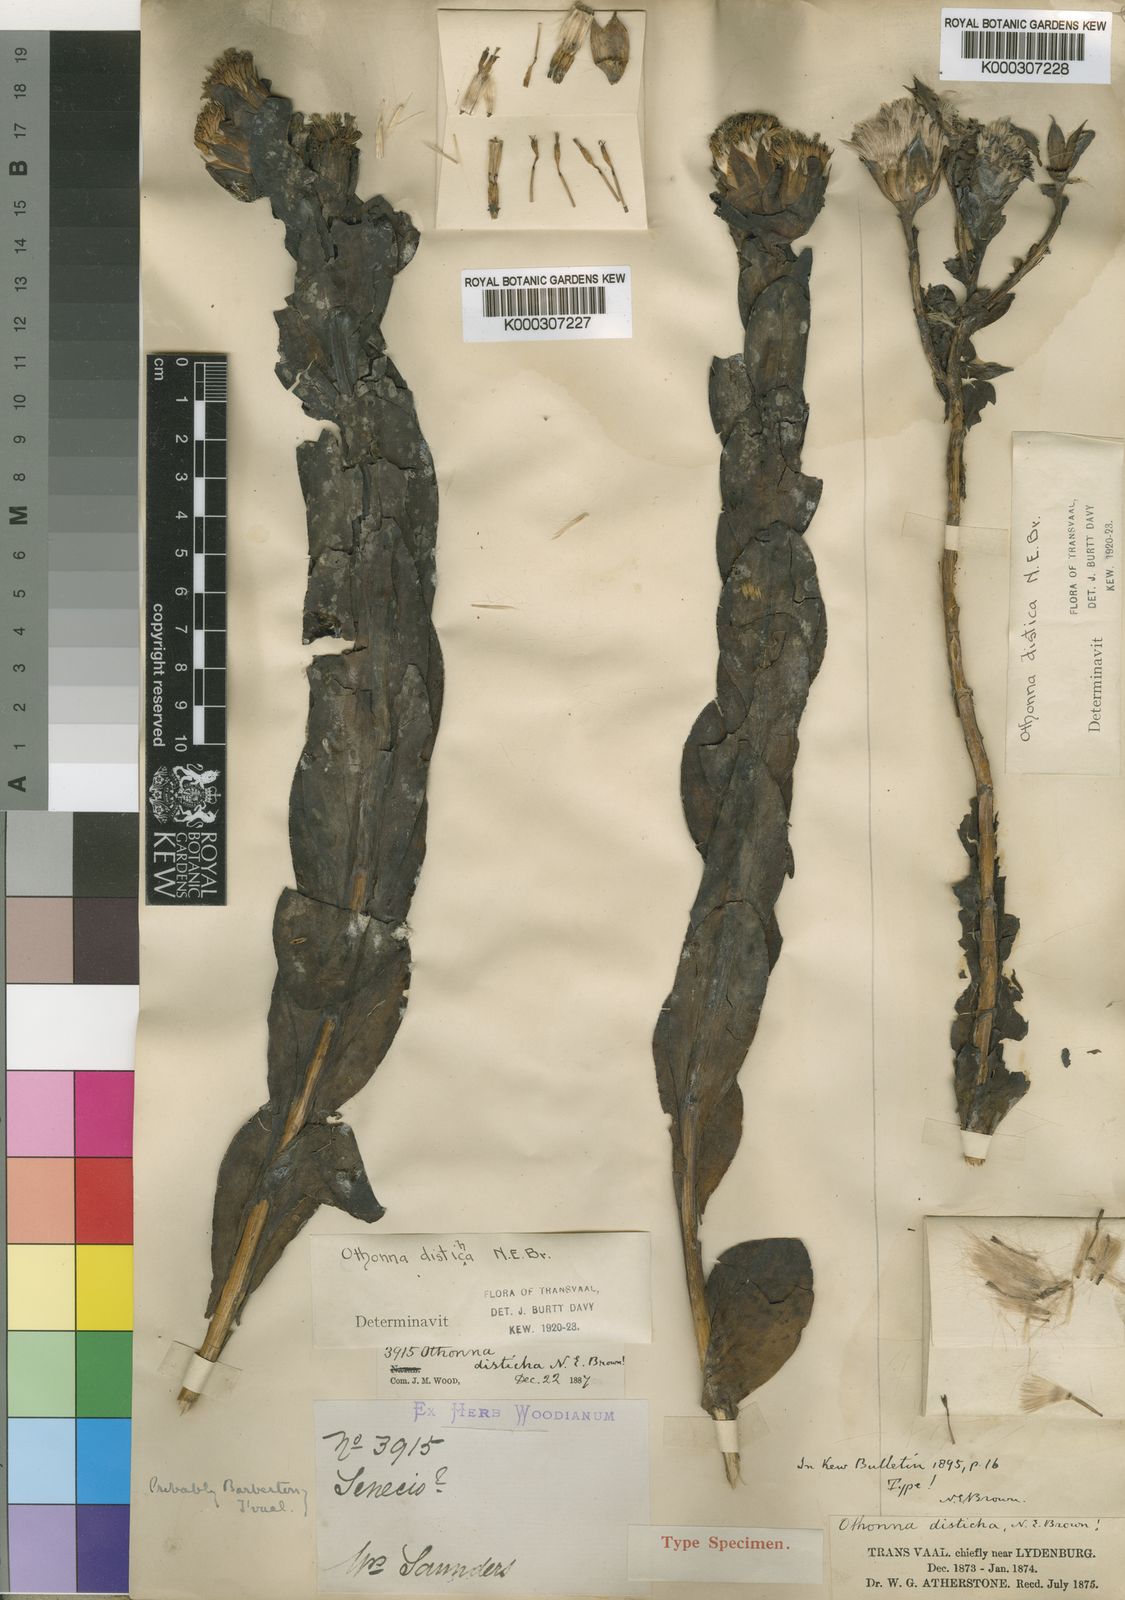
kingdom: Plantae
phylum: Tracheophyta
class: Magnoliopsida
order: Asterales
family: Asteraceae
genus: Lopholaena
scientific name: Lopholaena disticha
